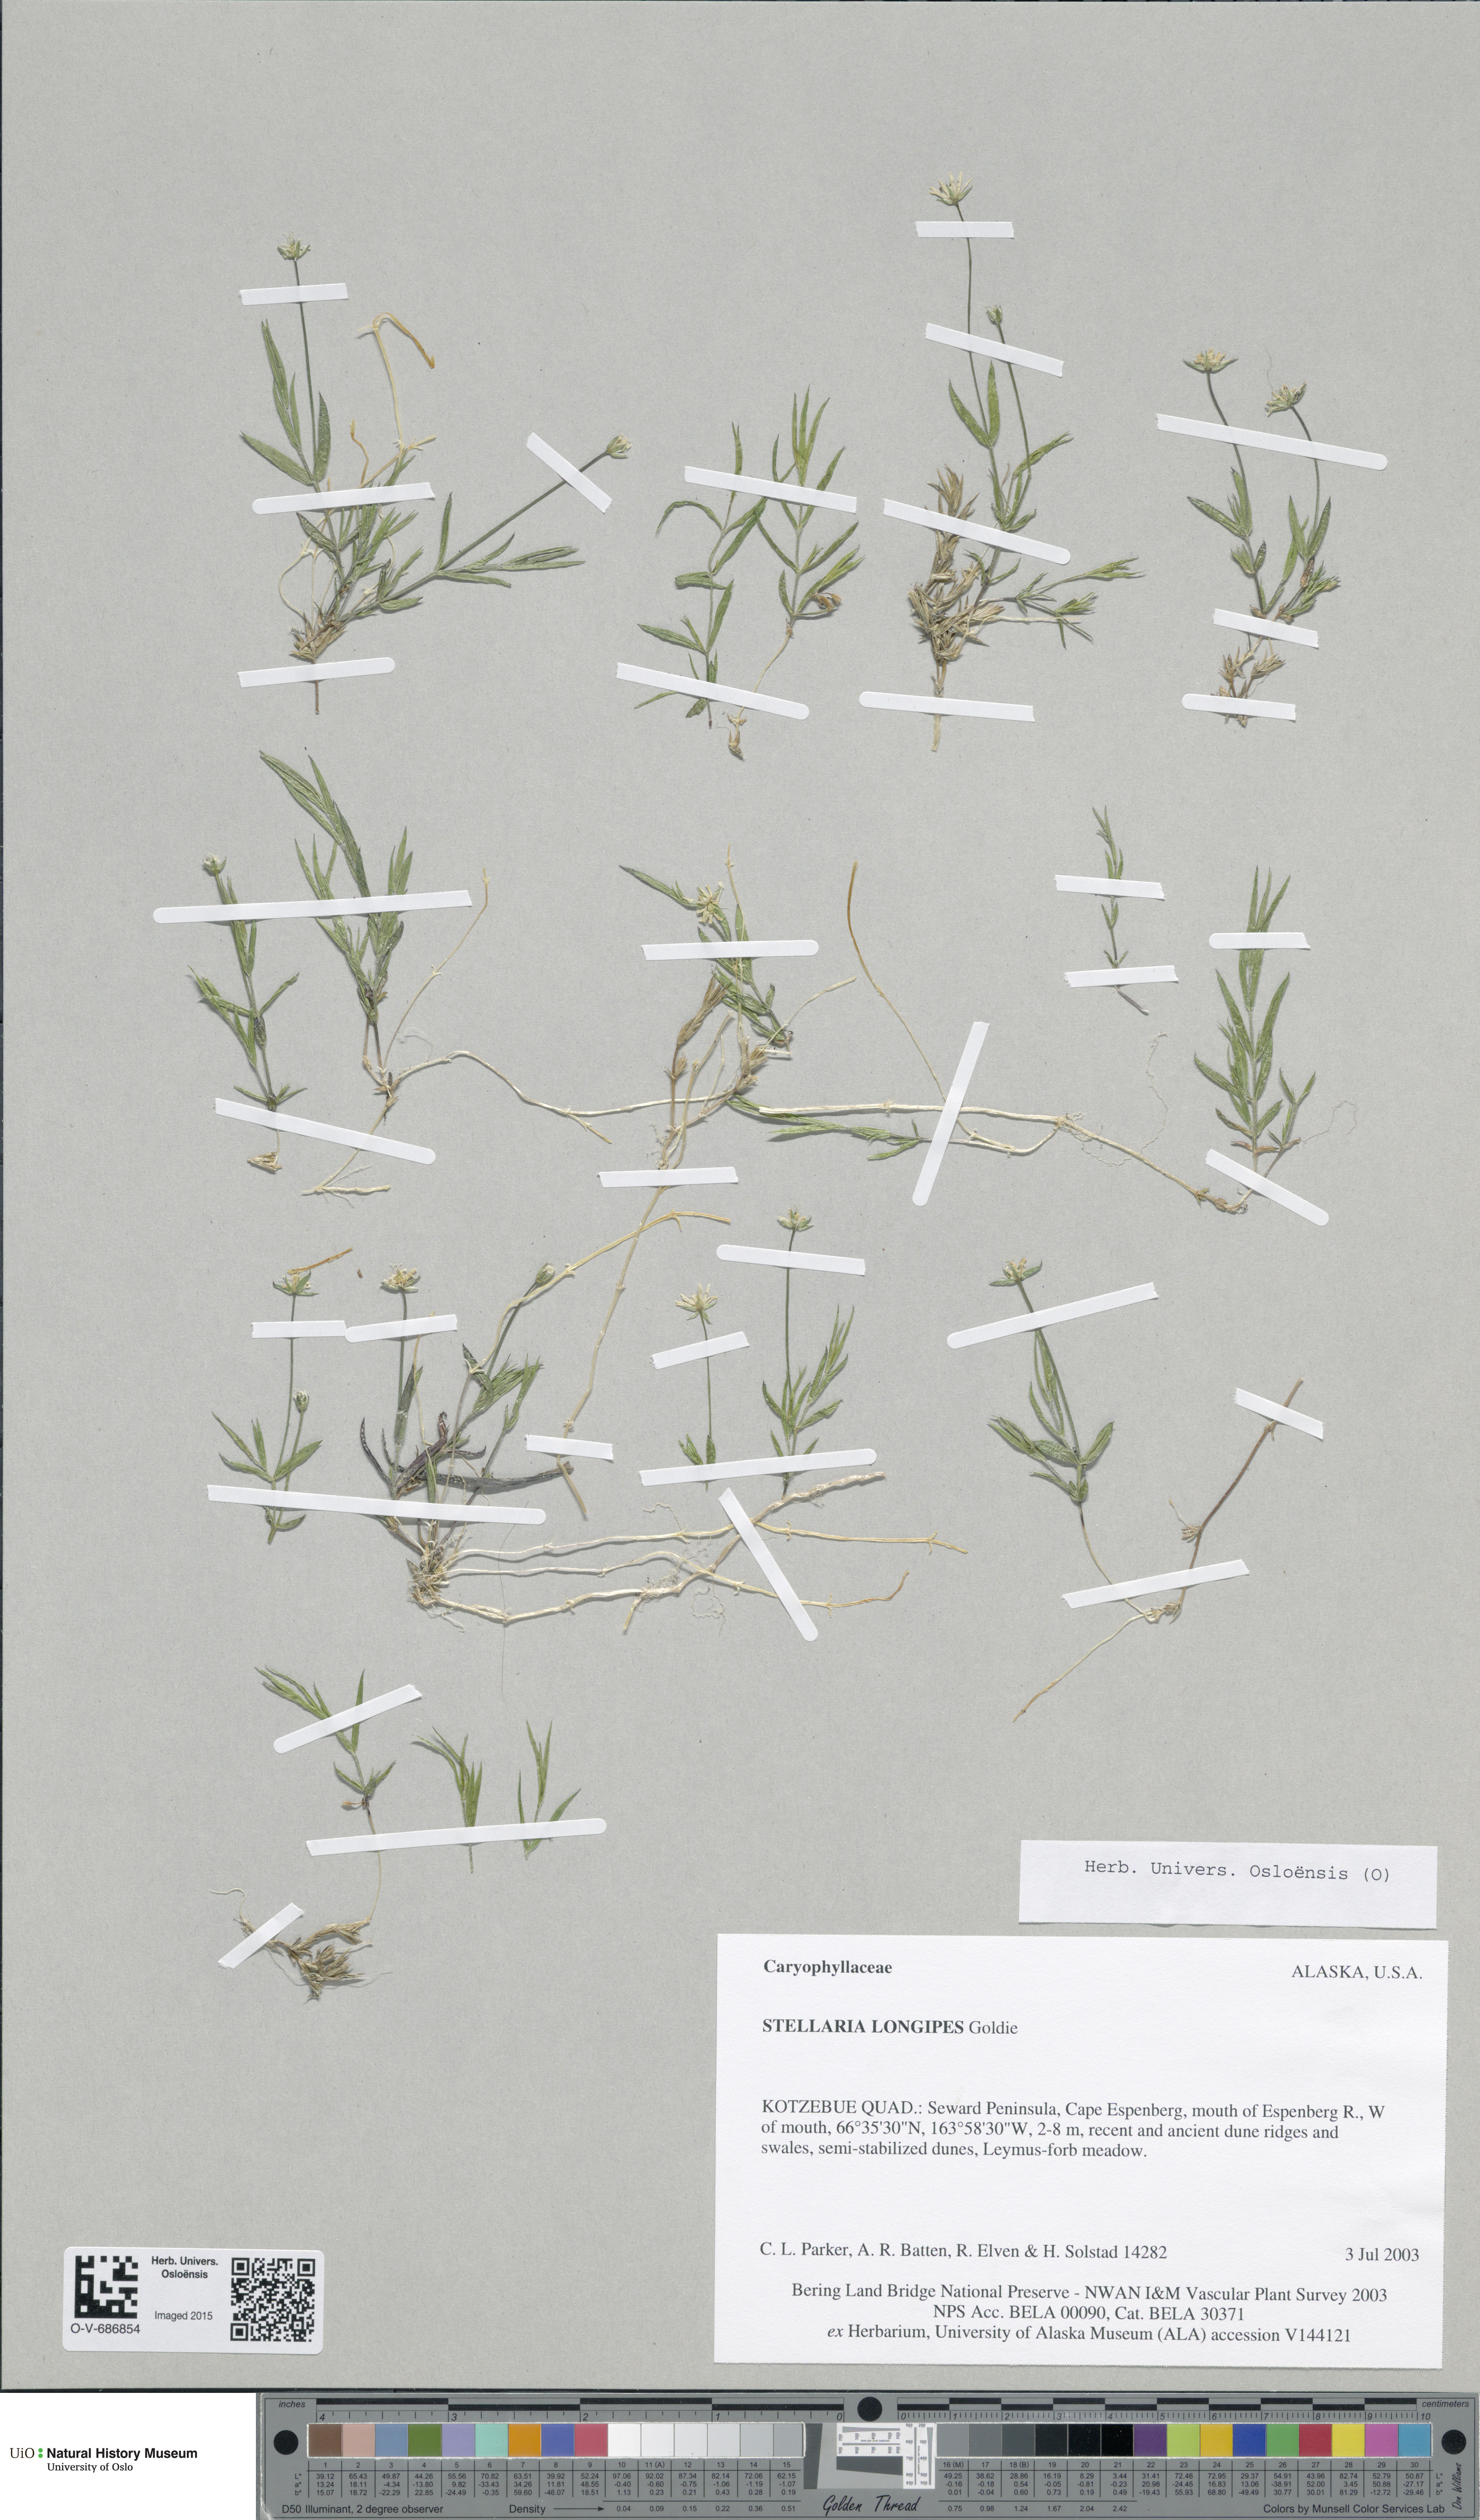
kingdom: Plantae
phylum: Tracheophyta
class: Magnoliopsida
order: Caryophyllales
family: Caryophyllaceae
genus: Stellaria
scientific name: Stellaria longipes
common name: Goldie's starwort
